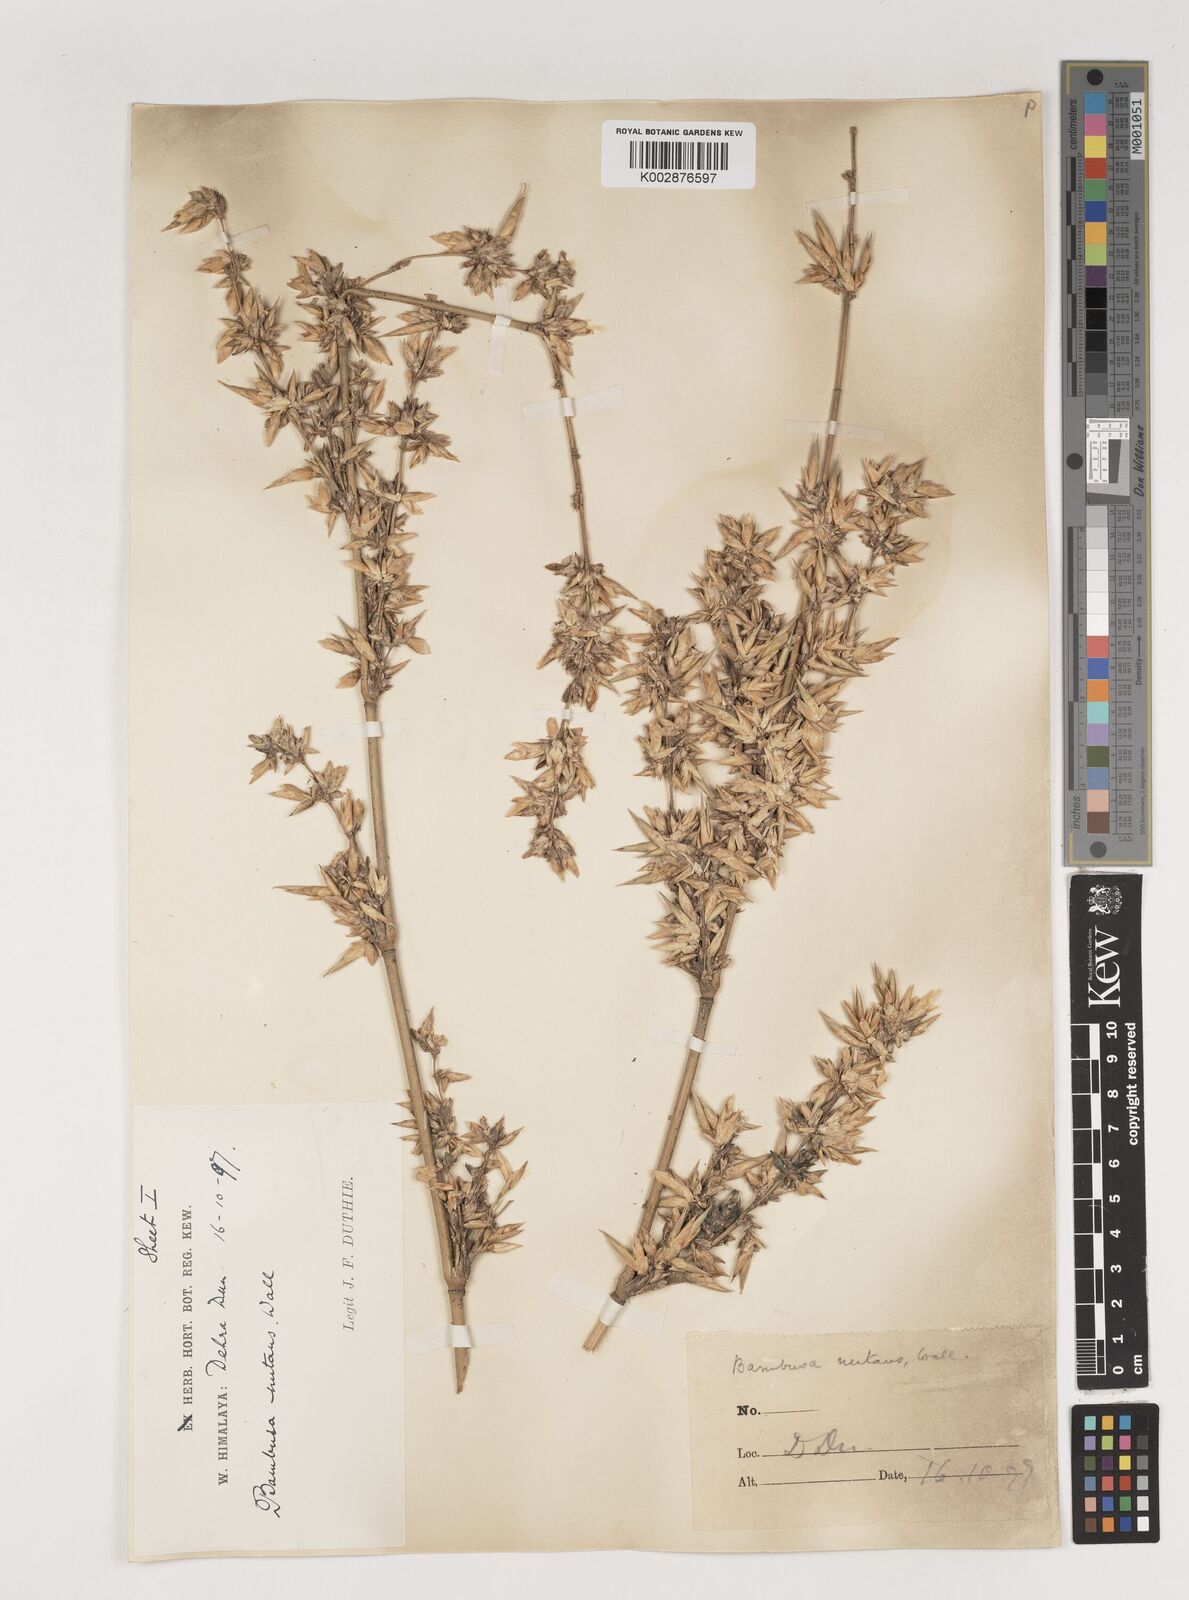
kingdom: Plantae
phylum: Tracheophyta
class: Liliopsida
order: Poales
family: Poaceae
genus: Bambusa
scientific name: Bambusa nutans
